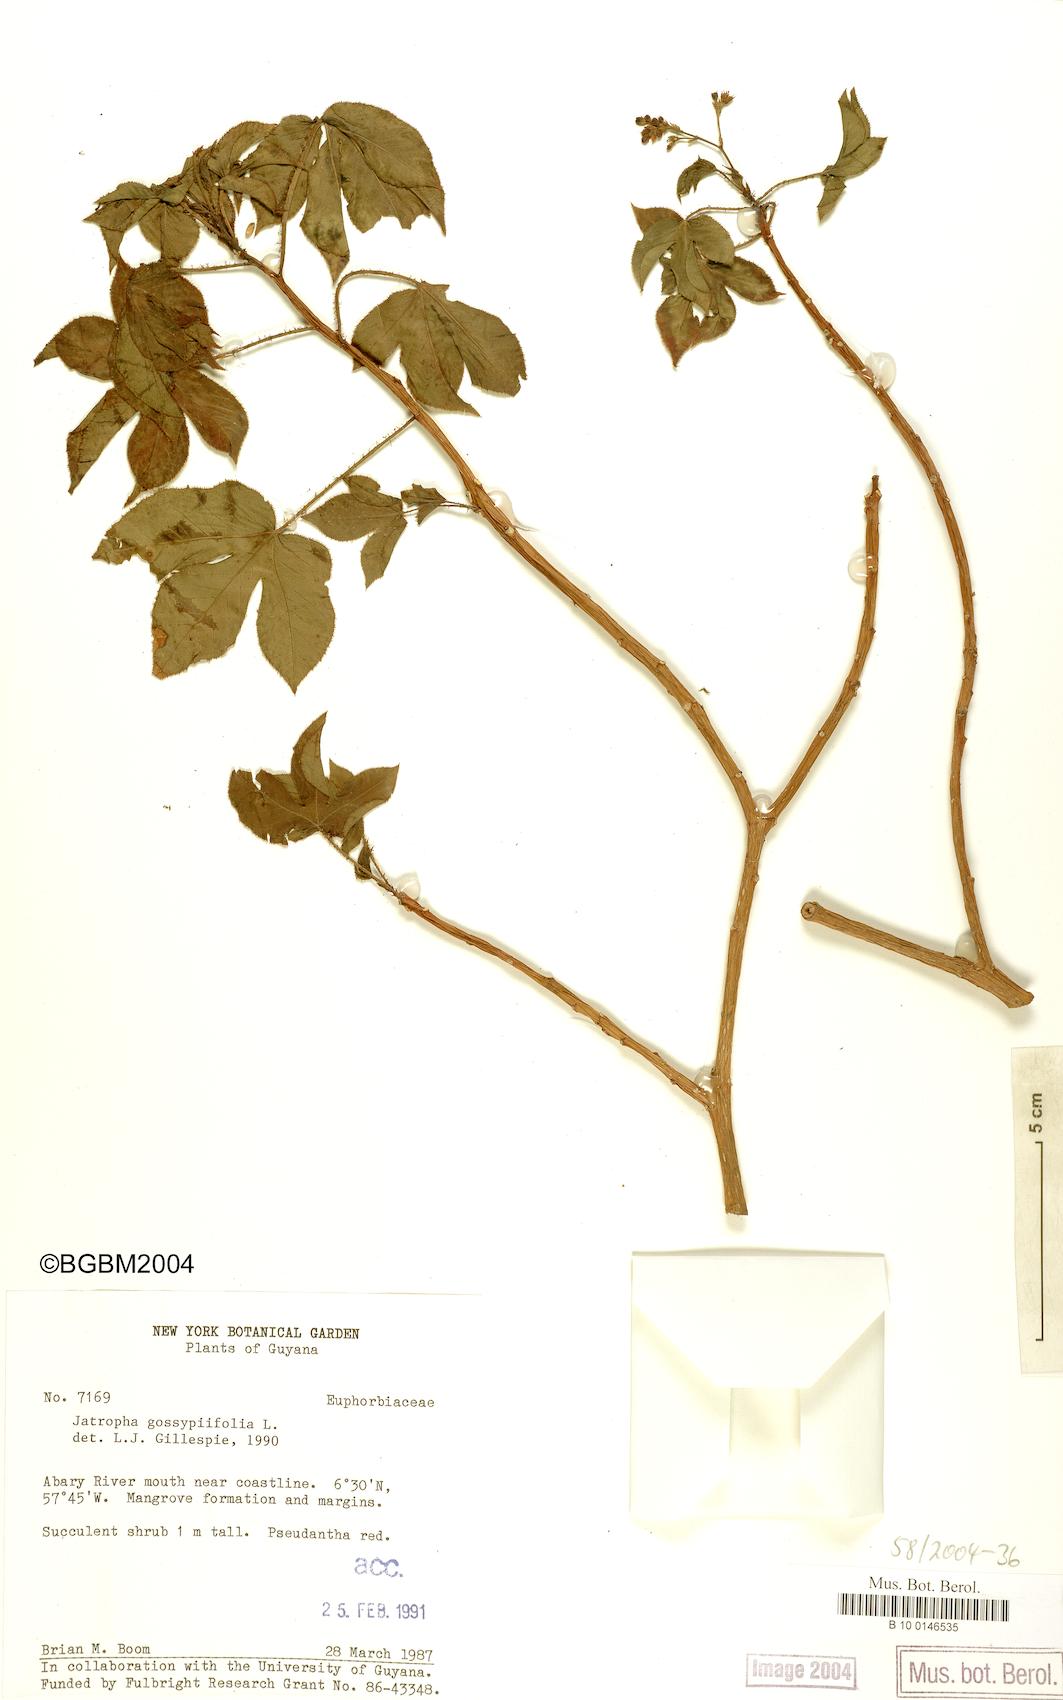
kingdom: Plantae
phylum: Tracheophyta
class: Magnoliopsida
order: Malpighiales
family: Euphorbiaceae
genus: Jatropha
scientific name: Jatropha gossypiifolia
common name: Bellyache bush
